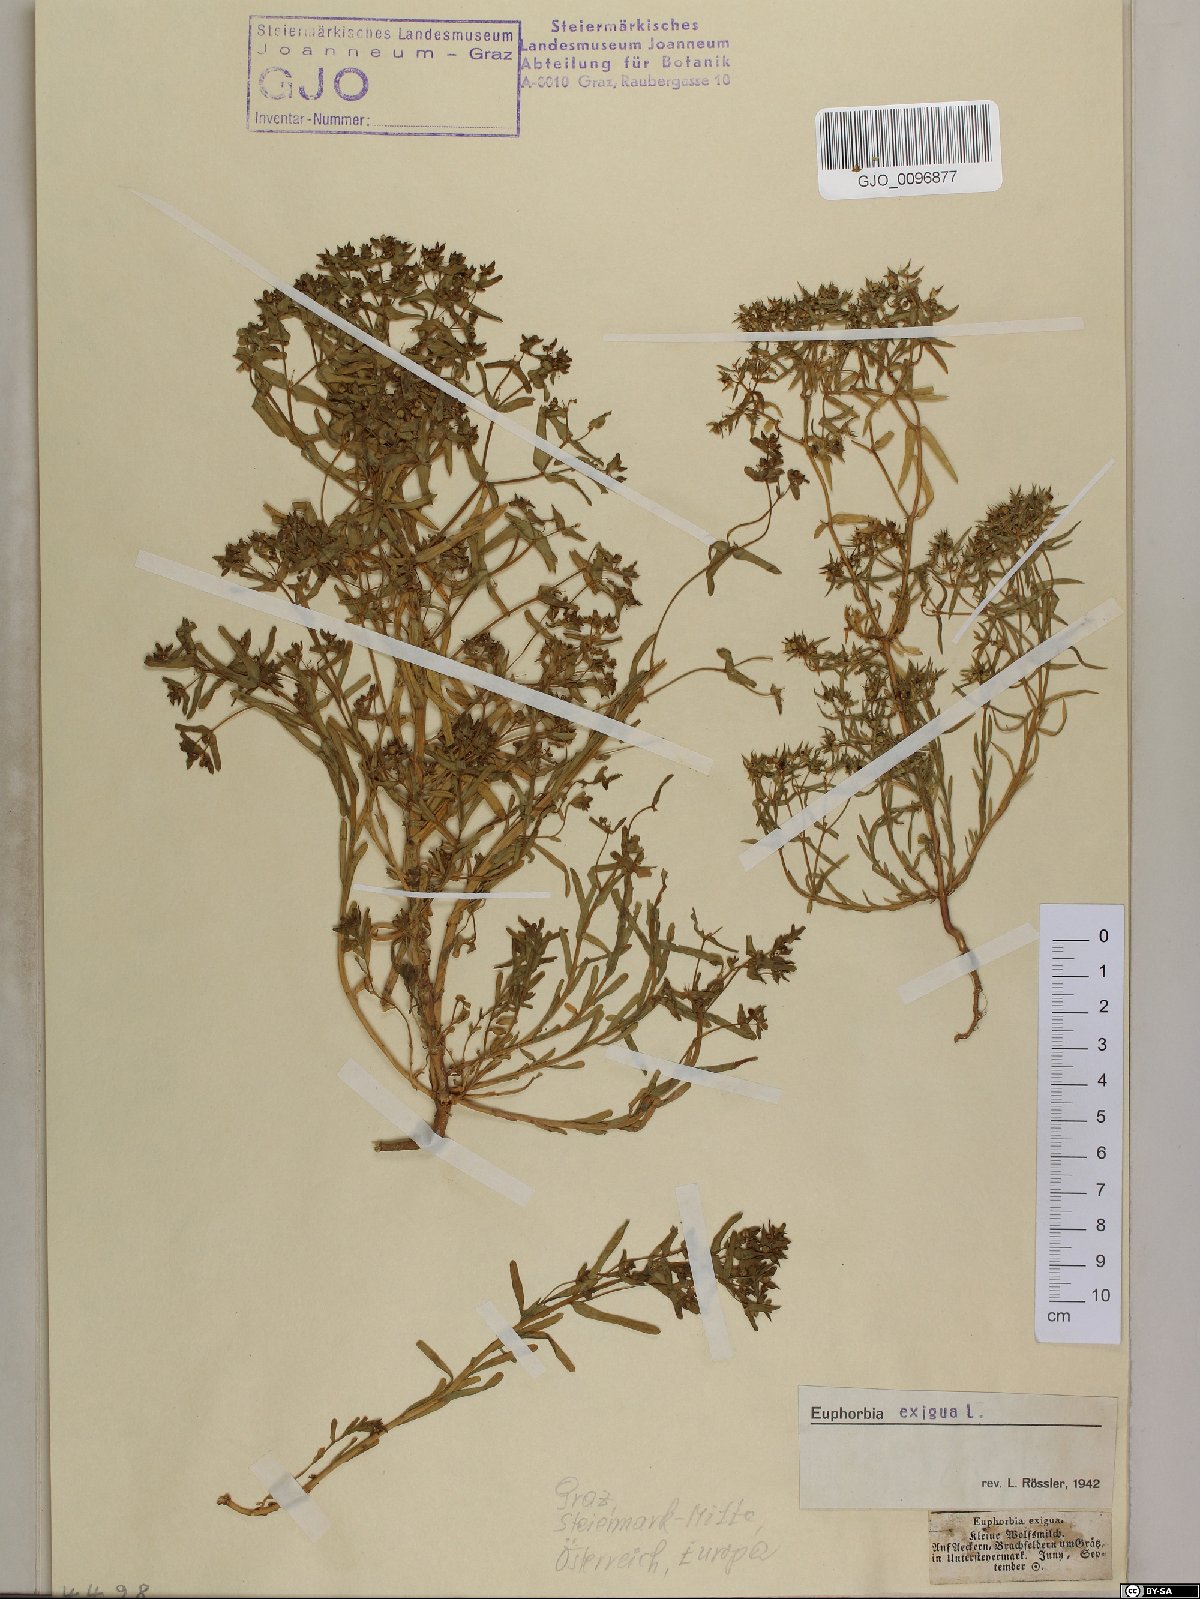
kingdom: Plantae
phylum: Tracheophyta
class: Magnoliopsida
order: Malpighiales
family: Euphorbiaceae
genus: Euphorbia
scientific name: Euphorbia exigua
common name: Dwarf spurge
